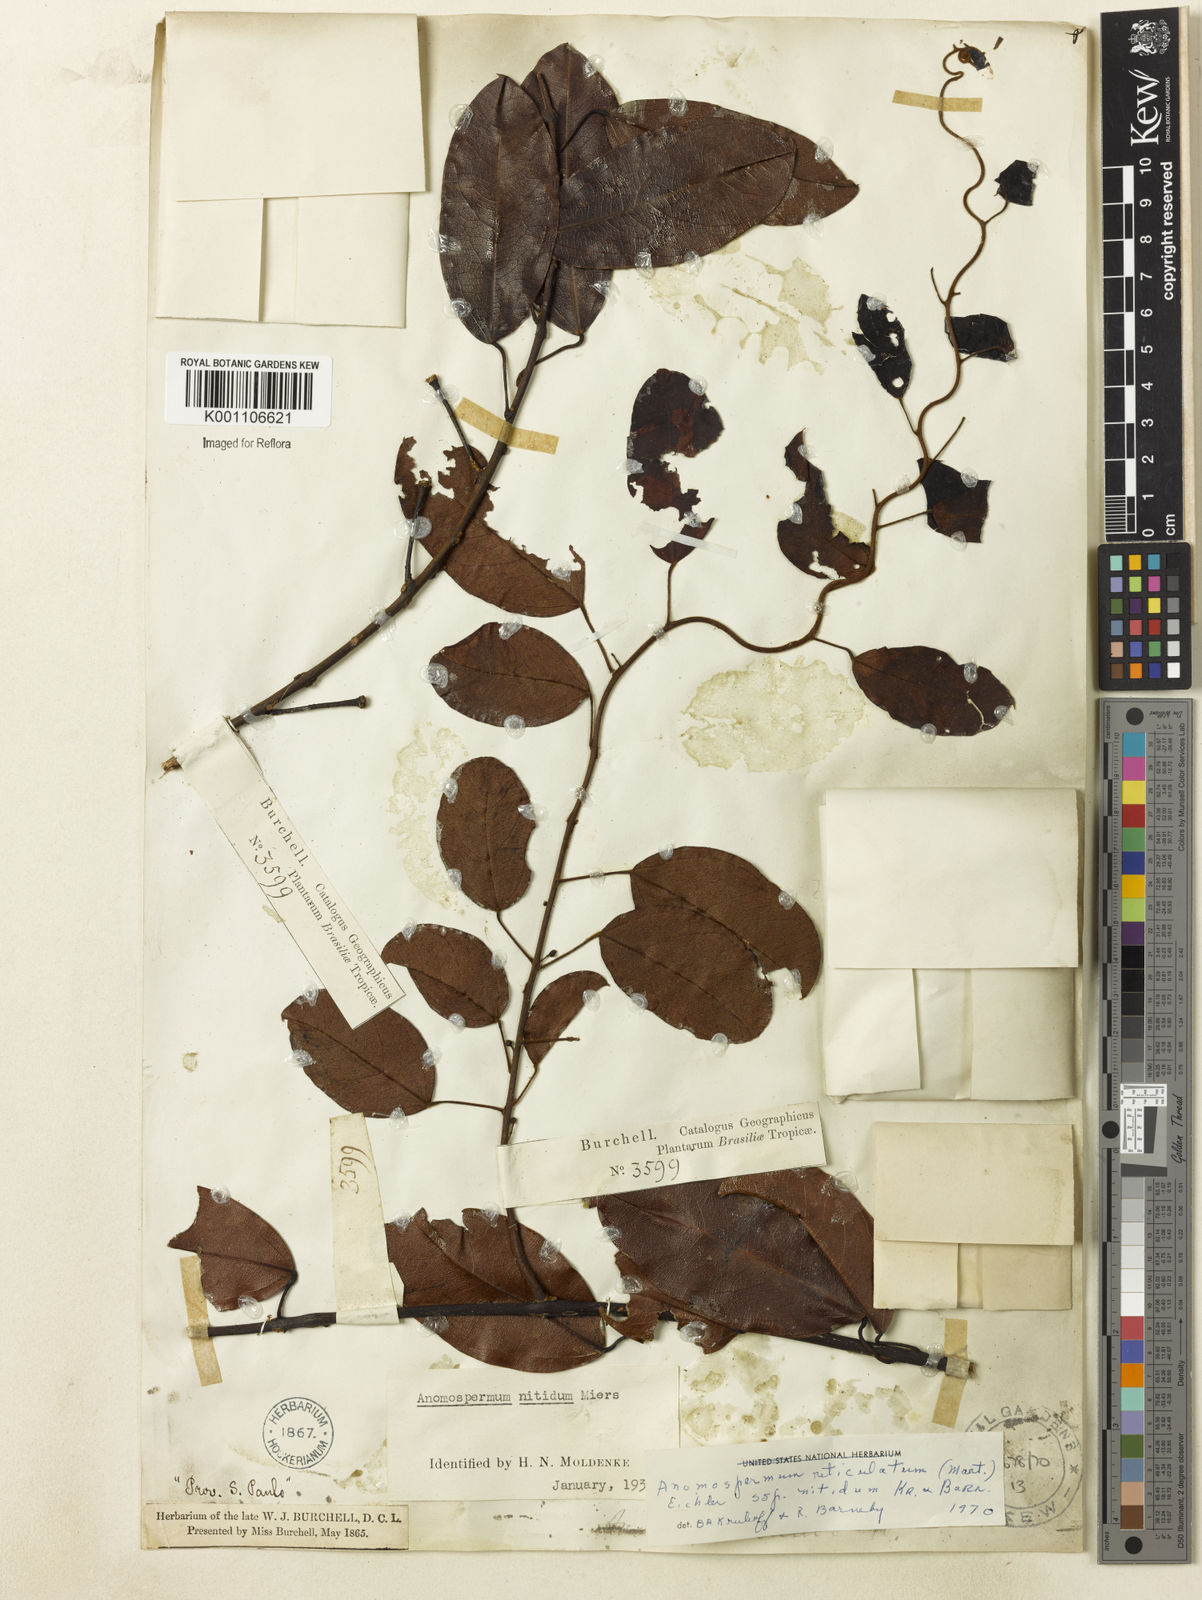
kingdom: Plantae
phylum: Tracheophyta
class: Magnoliopsida
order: Ranunculales
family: Menispermaceae
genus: Anomospermum
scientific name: Anomospermum reticulatum
